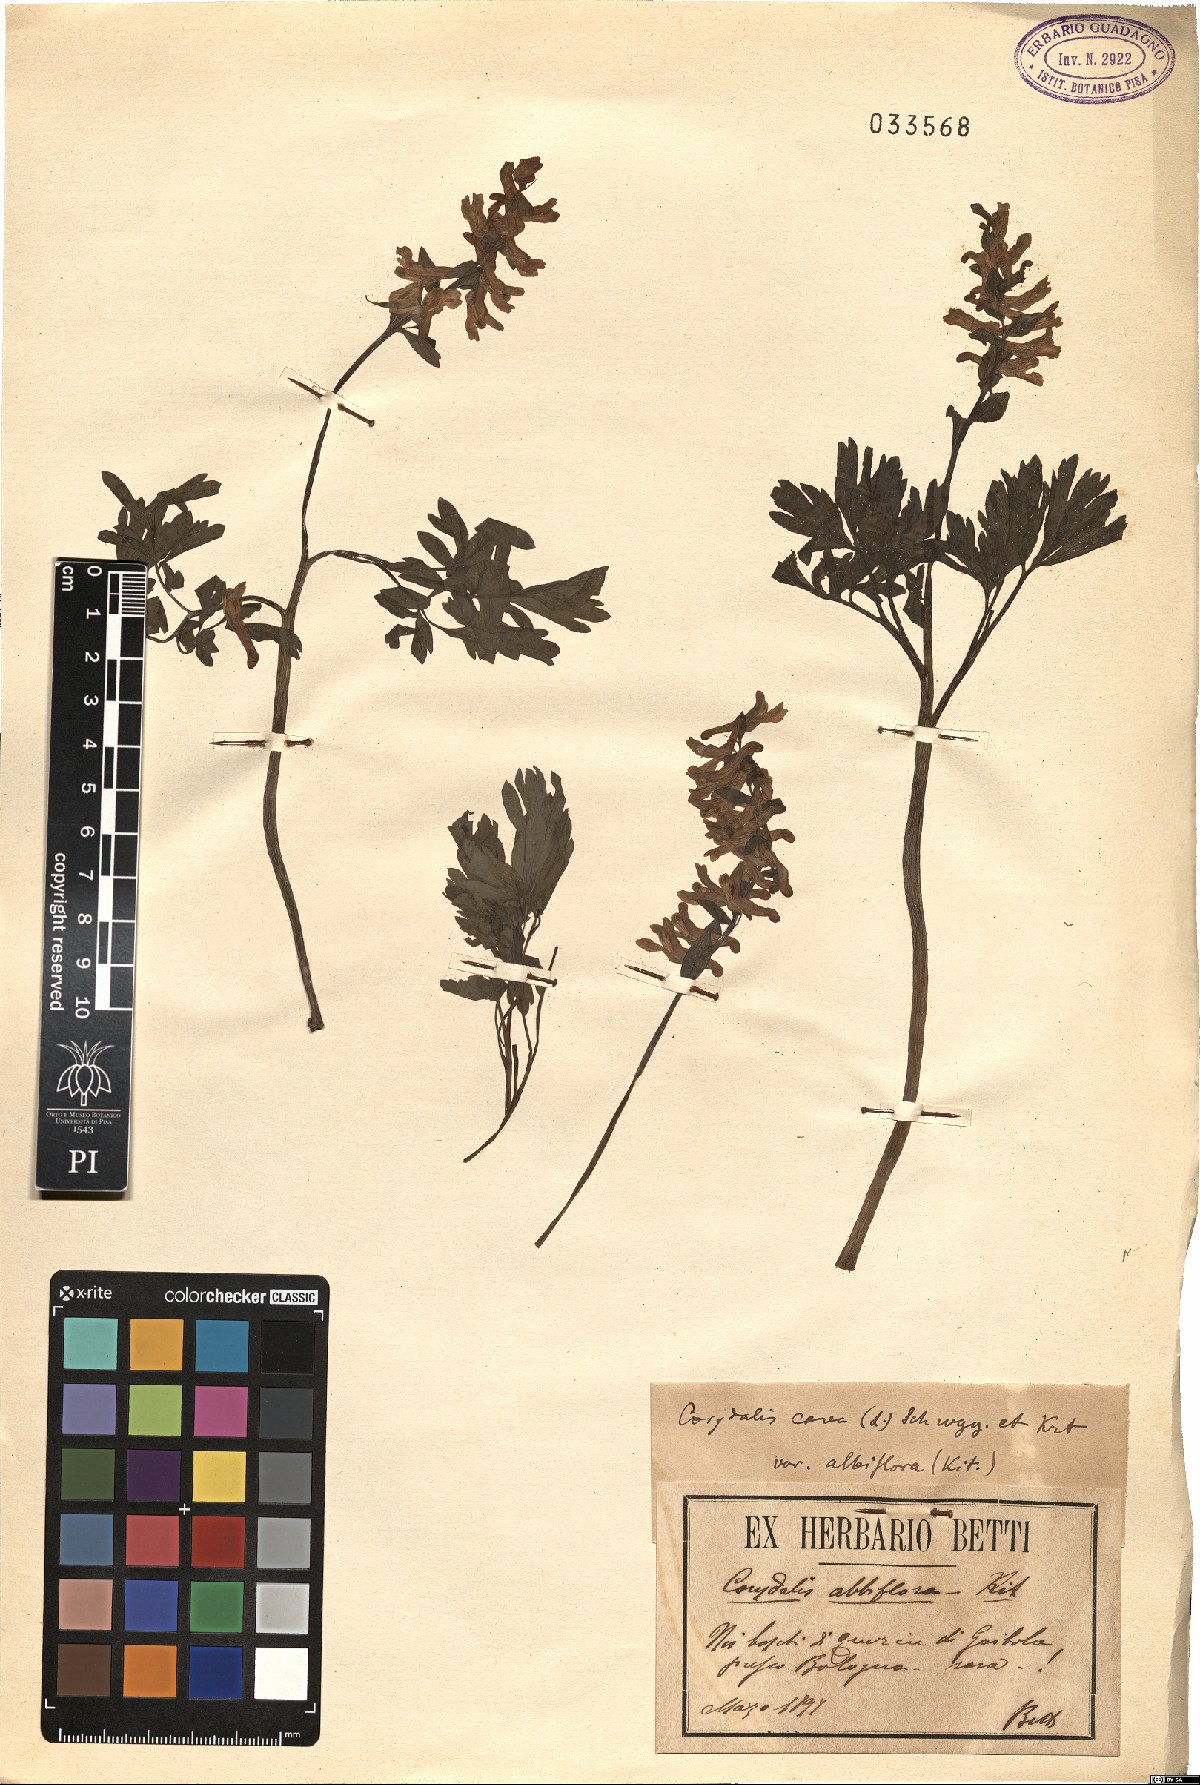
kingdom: Plantae
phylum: Tracheophyta
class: Magnoliopsida
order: Ranunculales
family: Papaveraceae
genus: Corydalis
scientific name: Corydalis cava
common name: Hollowroot
